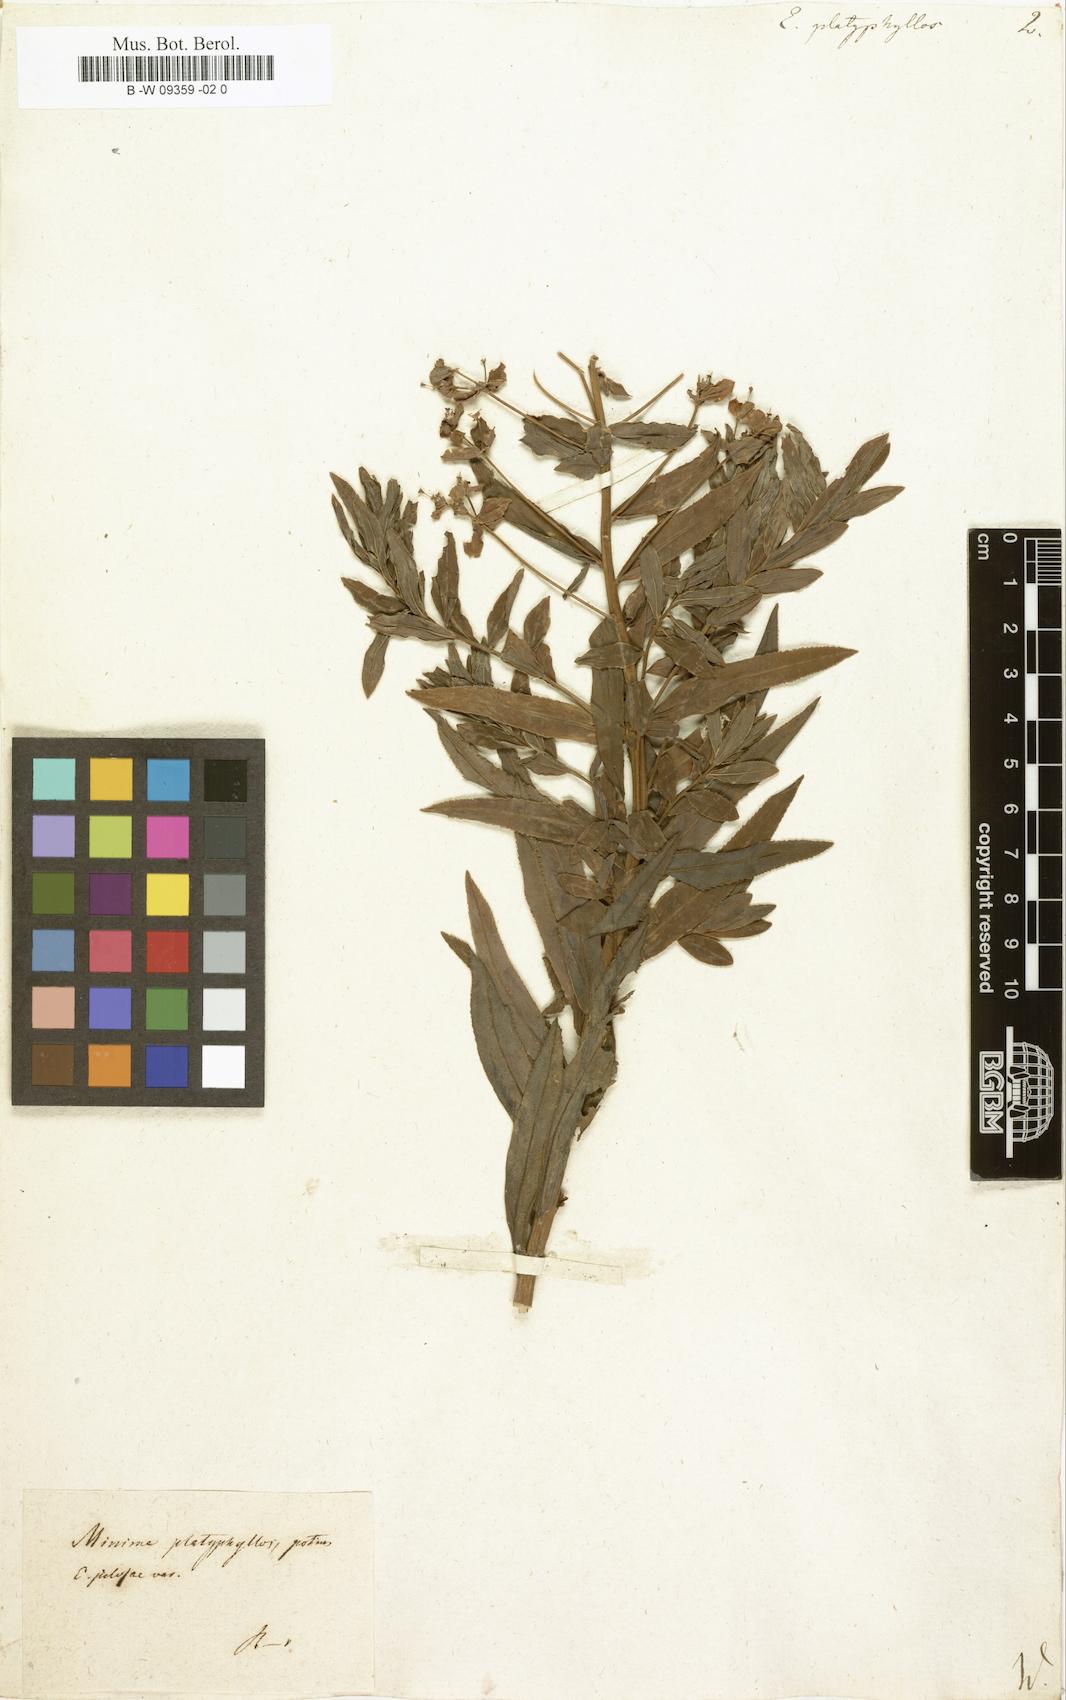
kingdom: Plantae
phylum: Tracheophyta
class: Magnoliopsida
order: Malpighiales
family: Euphorbiaceae
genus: Euphorbia
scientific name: Euphorbia platyphyllos
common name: Broad-leaved spurge
